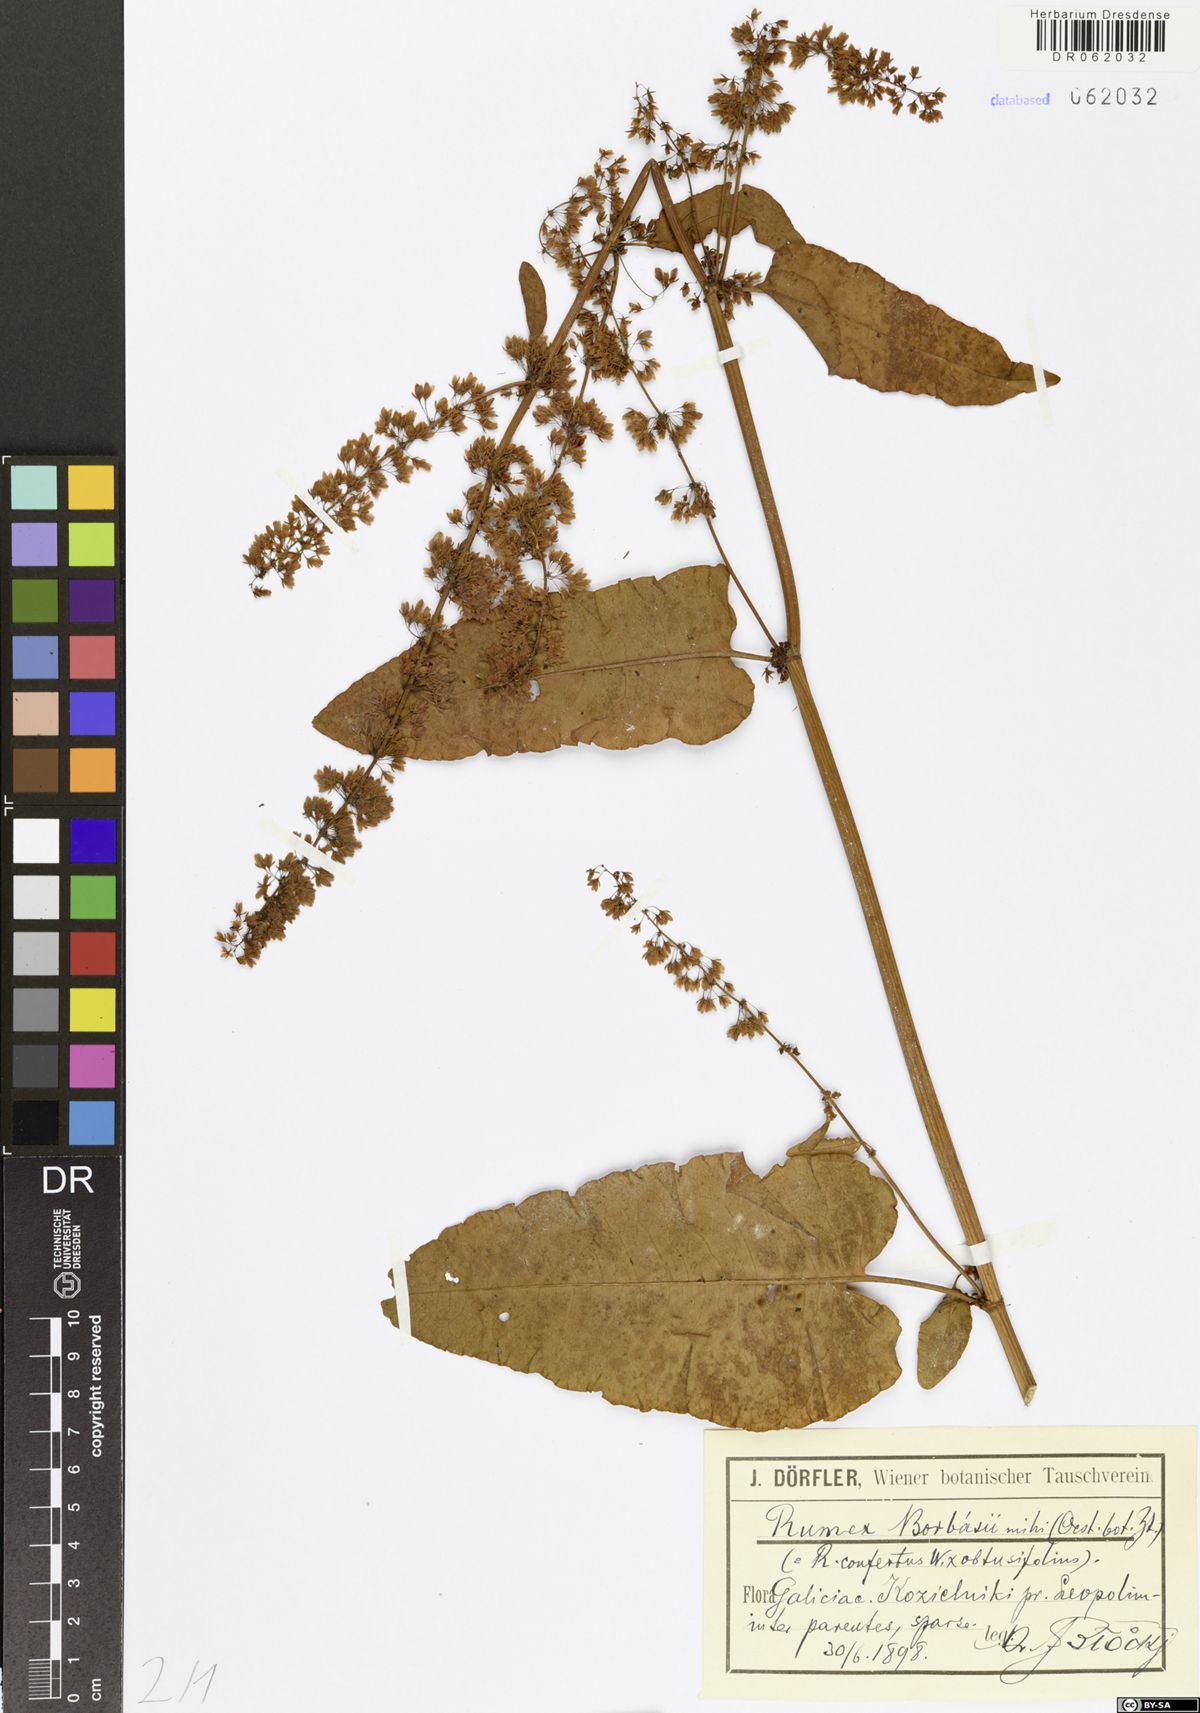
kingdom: Plantae
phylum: Tracheophyta
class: Magnoliopsida
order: Caryophyllales
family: Polygonaceae
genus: Rumex
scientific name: Rumex borbasii
